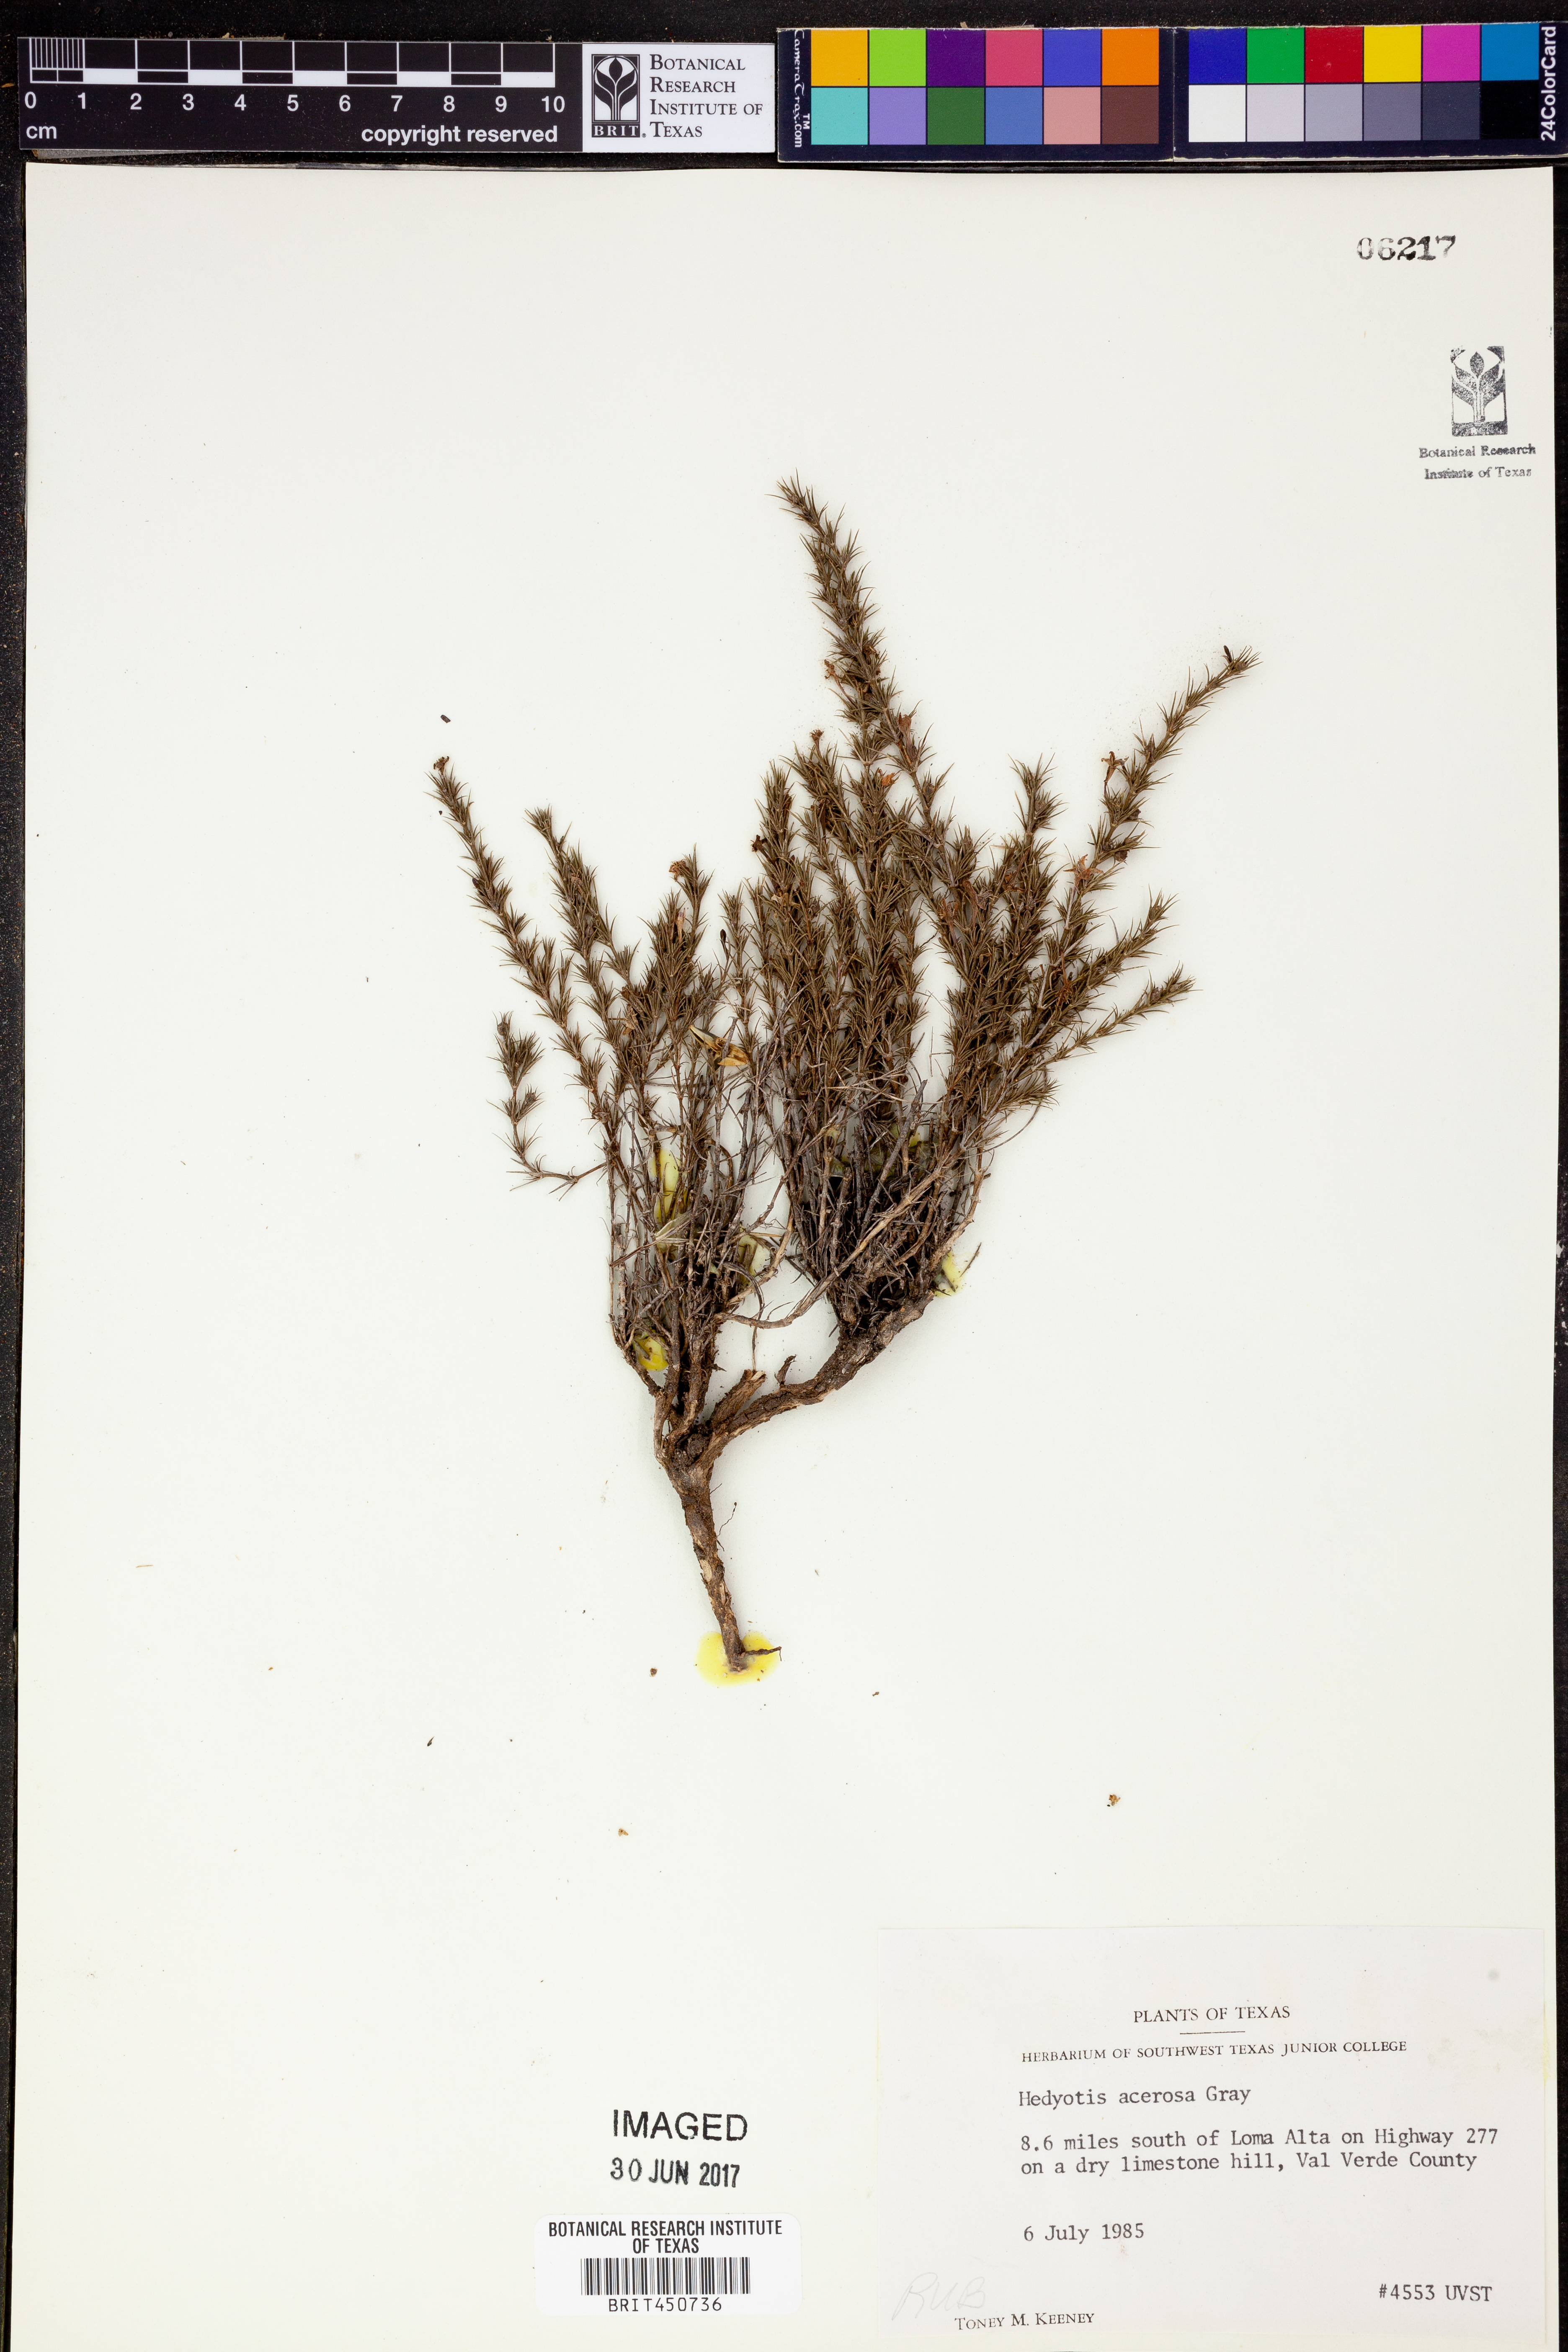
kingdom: Plantae
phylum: Tracheophyta
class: Magnoliopsida
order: Gentianales
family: Rubiaceae
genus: Houstonia
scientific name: Houstonia acerosa
